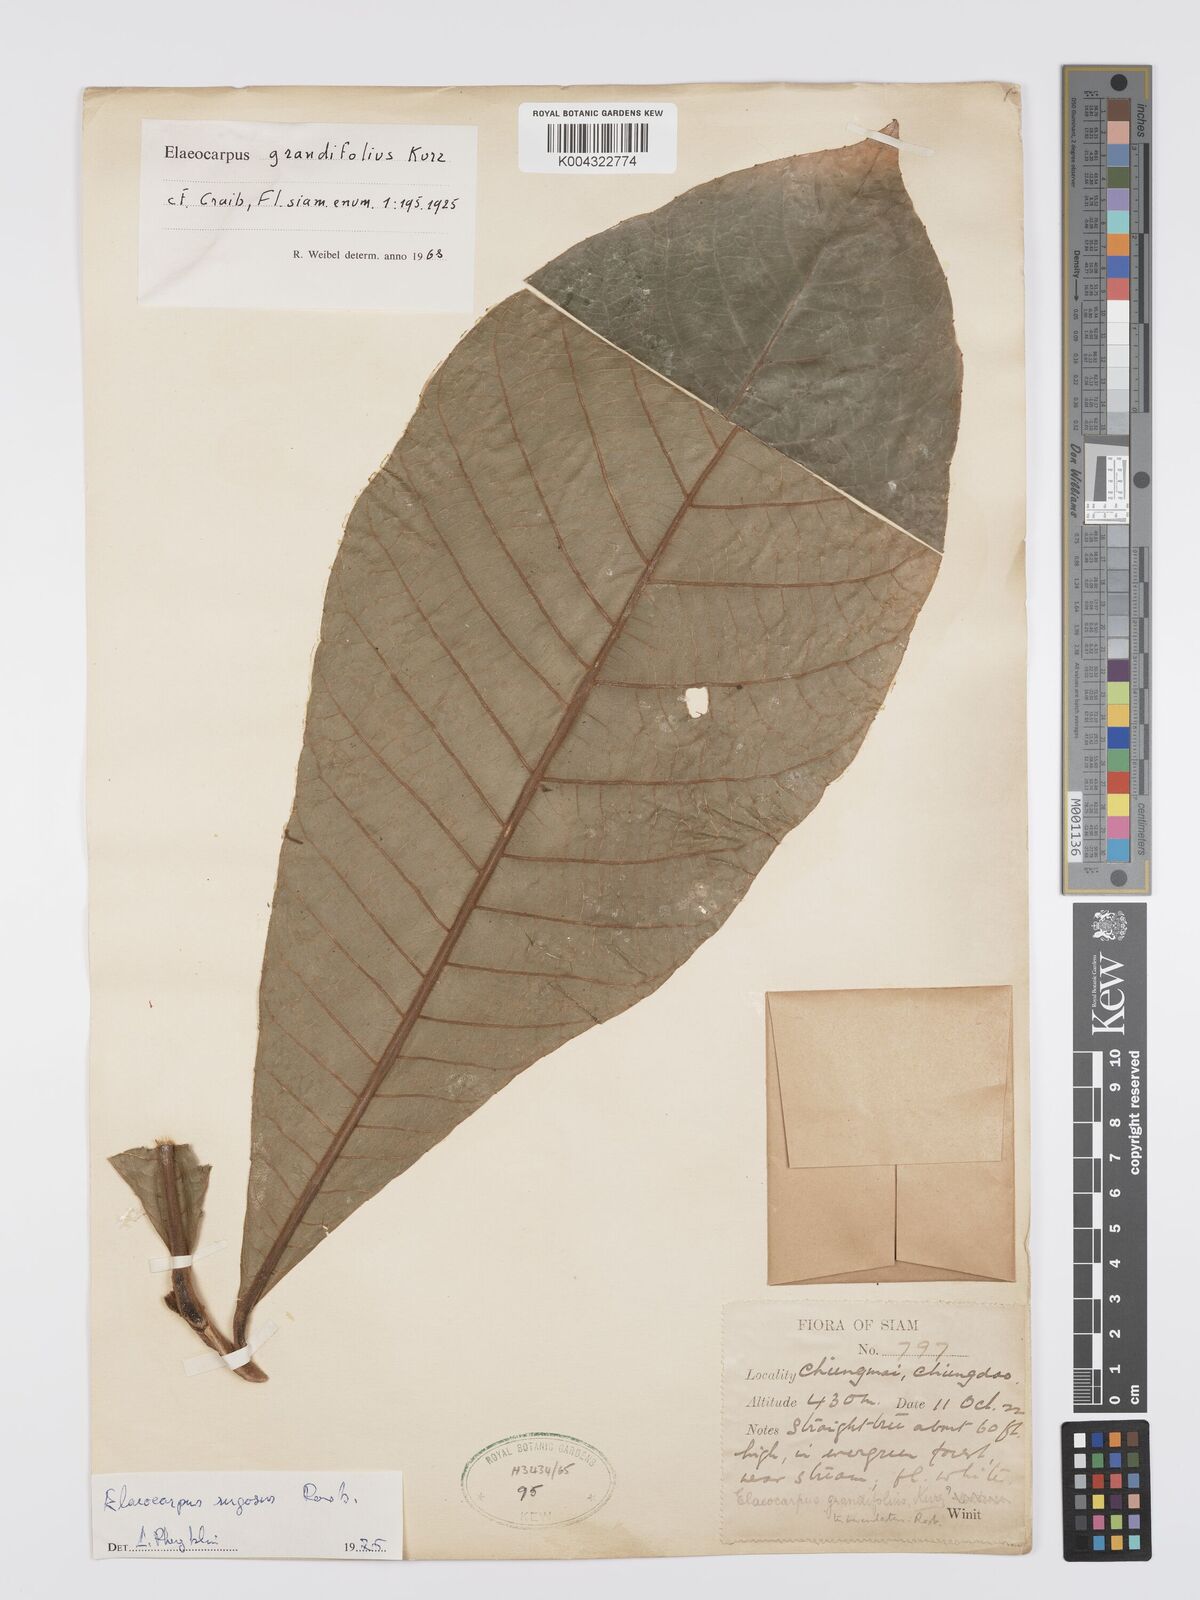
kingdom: Plantae
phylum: Tracheophyta
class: Magnoliopsida
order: Oxalidales
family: Elaeocarpaceae
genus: Elaeocarpus
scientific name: Elaeocarpus rugosus
